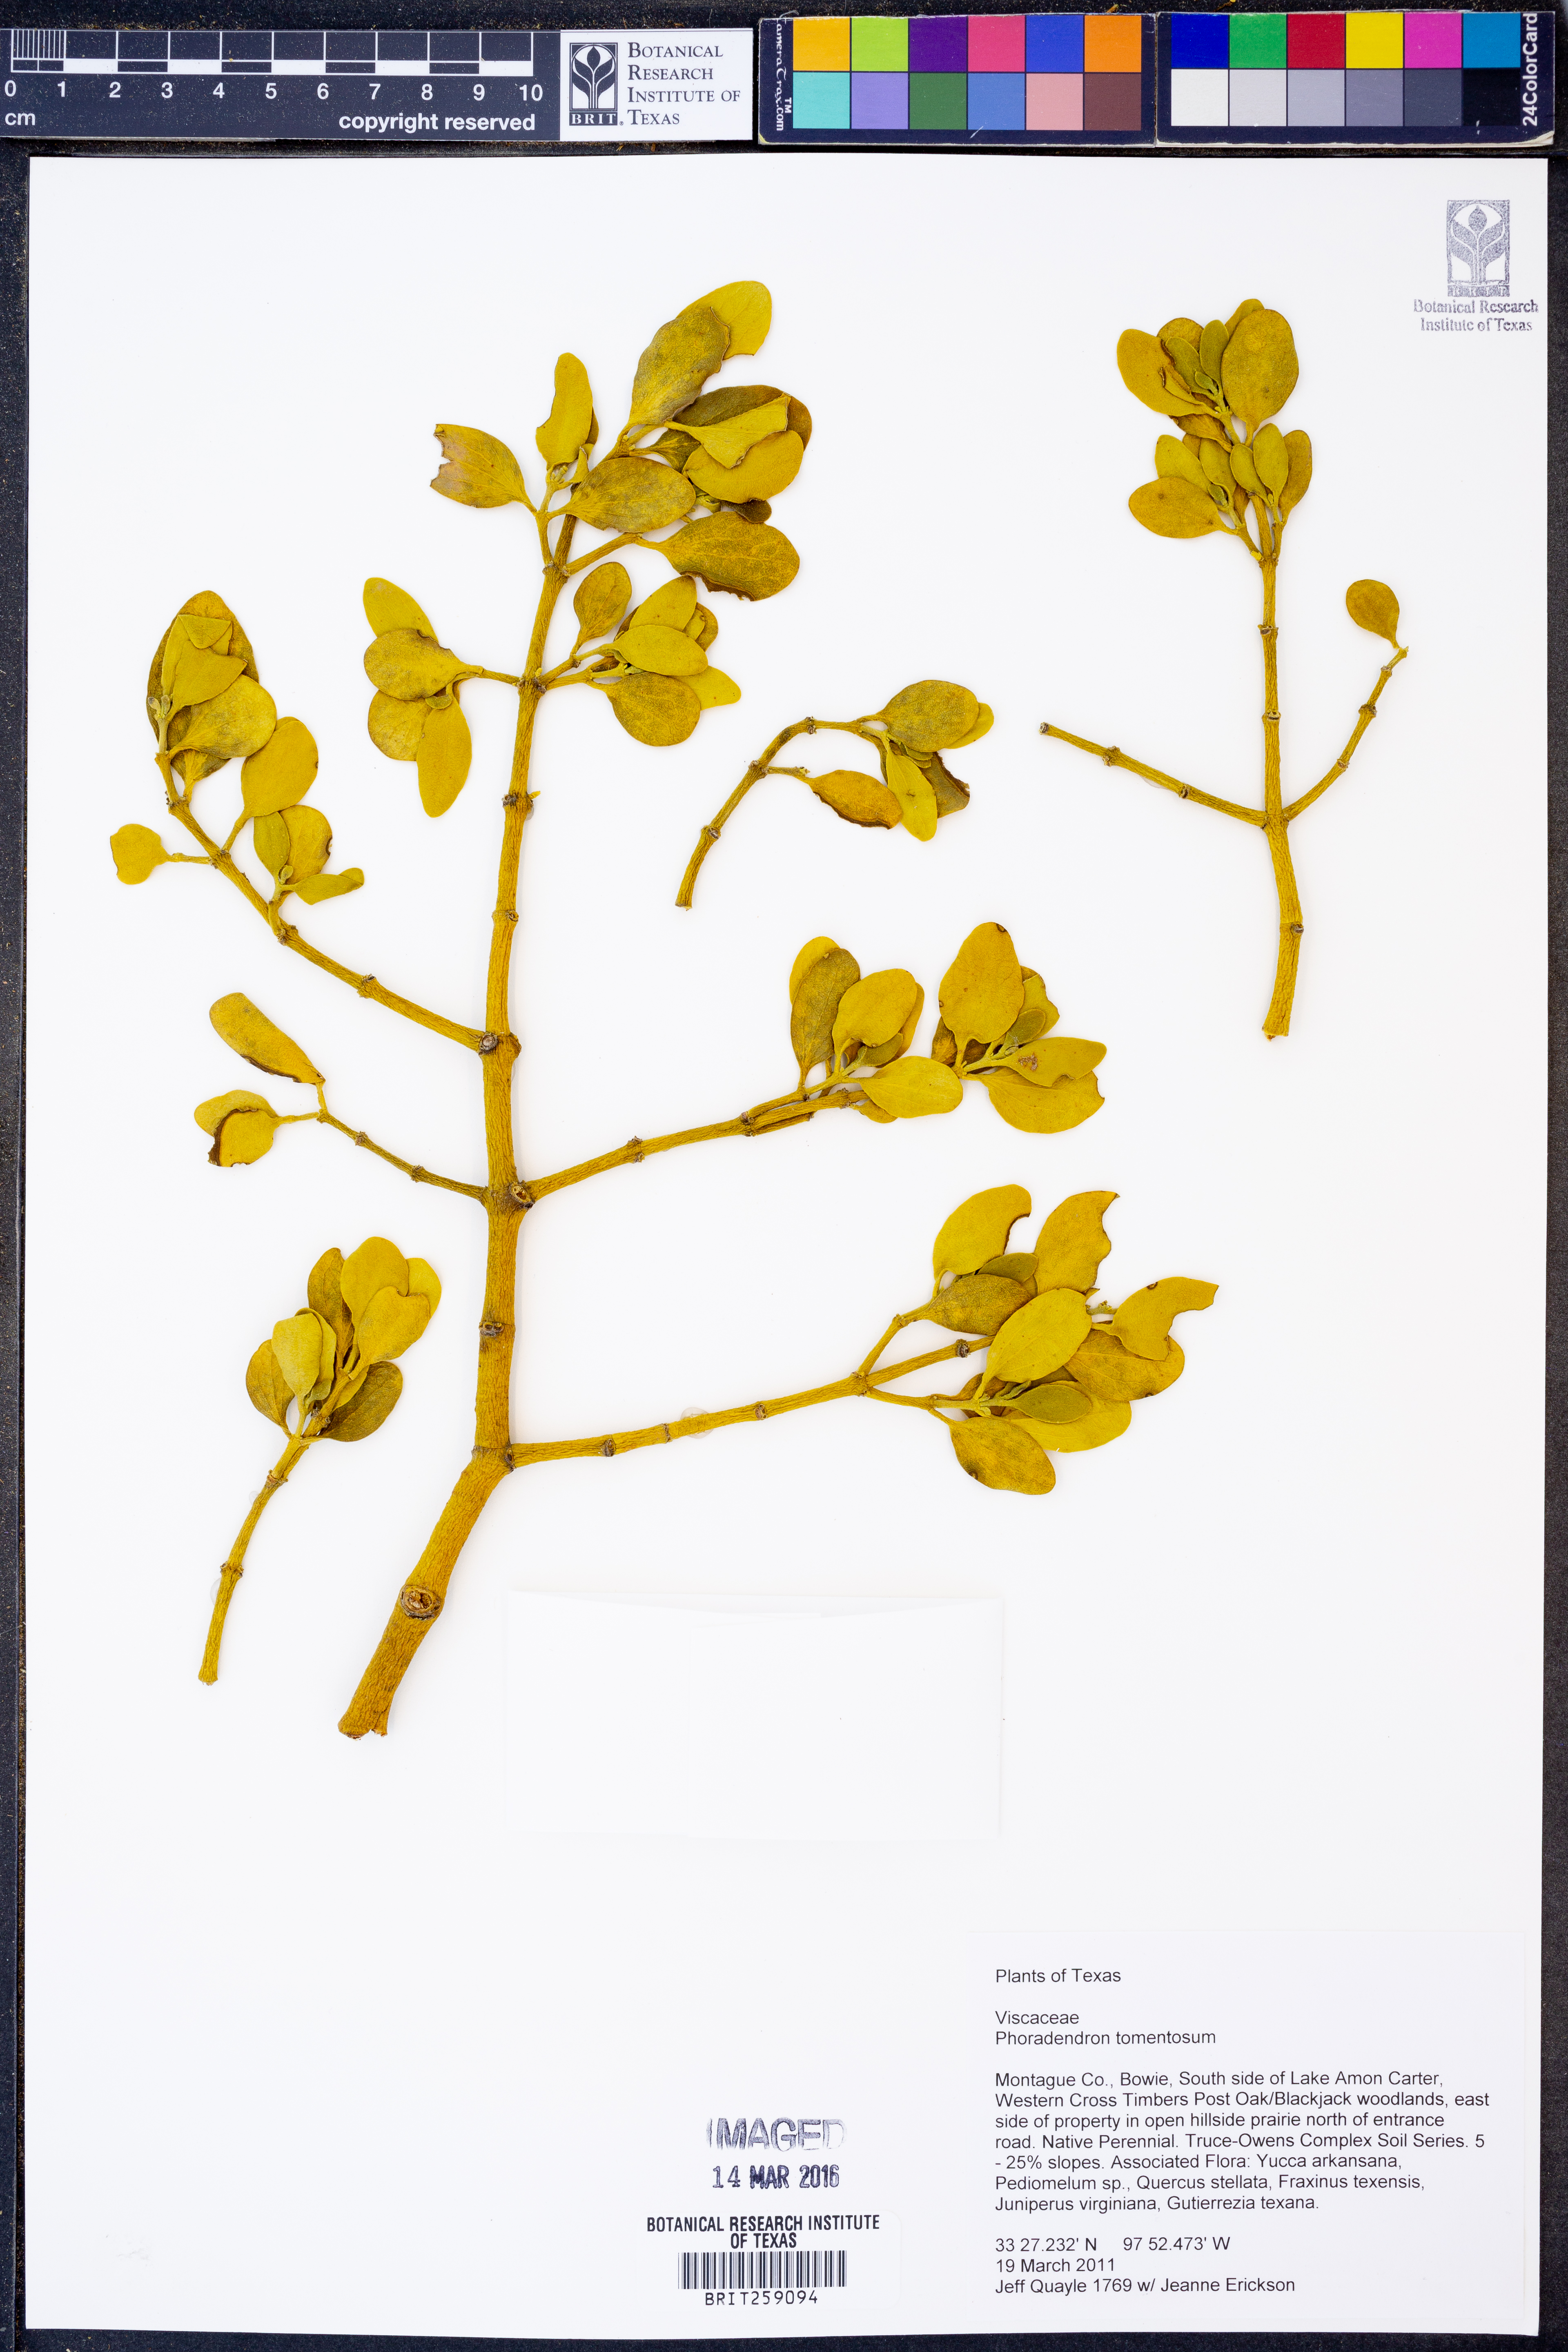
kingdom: Plantae
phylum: Tracheophyta
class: Magnoliopsida
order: Santalales
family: Viscaceae
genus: Phoradendron
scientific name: Phoradendron leucarpum
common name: Pacific mistletoe
